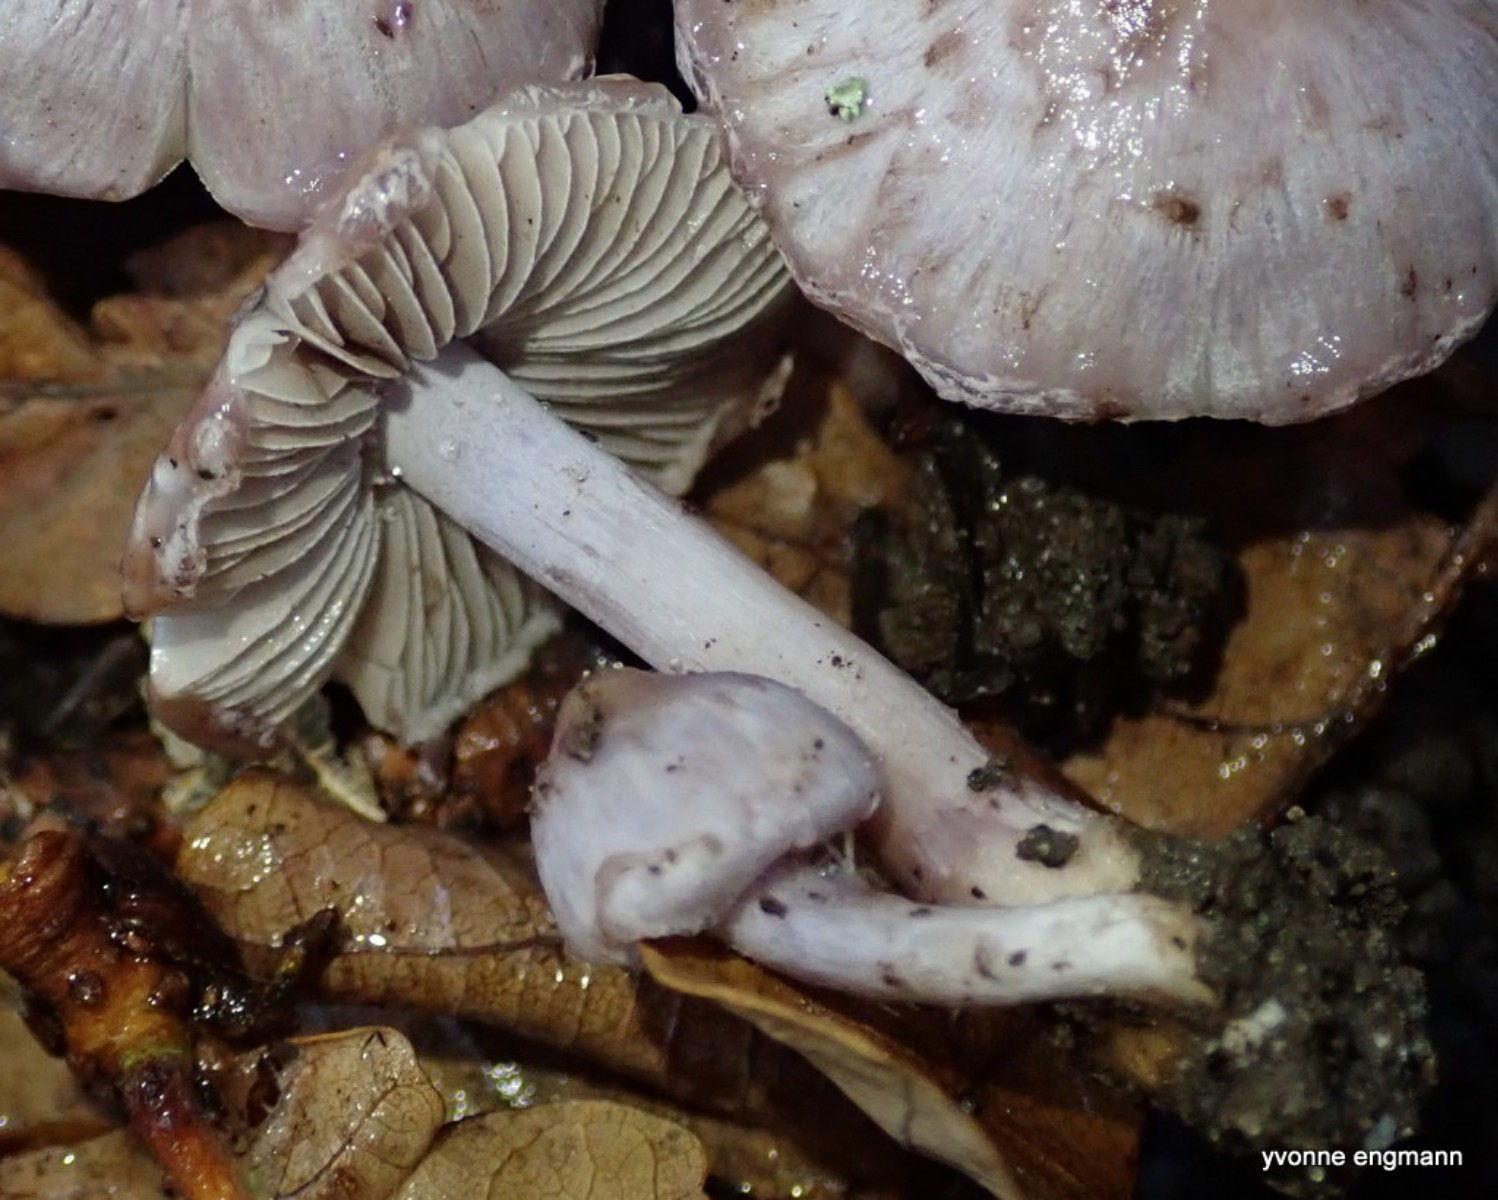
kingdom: Fungi
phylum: Basidiomycota
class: Agaricomycetes
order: Agaricales
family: Inocybaceae
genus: Inocybe
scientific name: Inocybe geophylla
